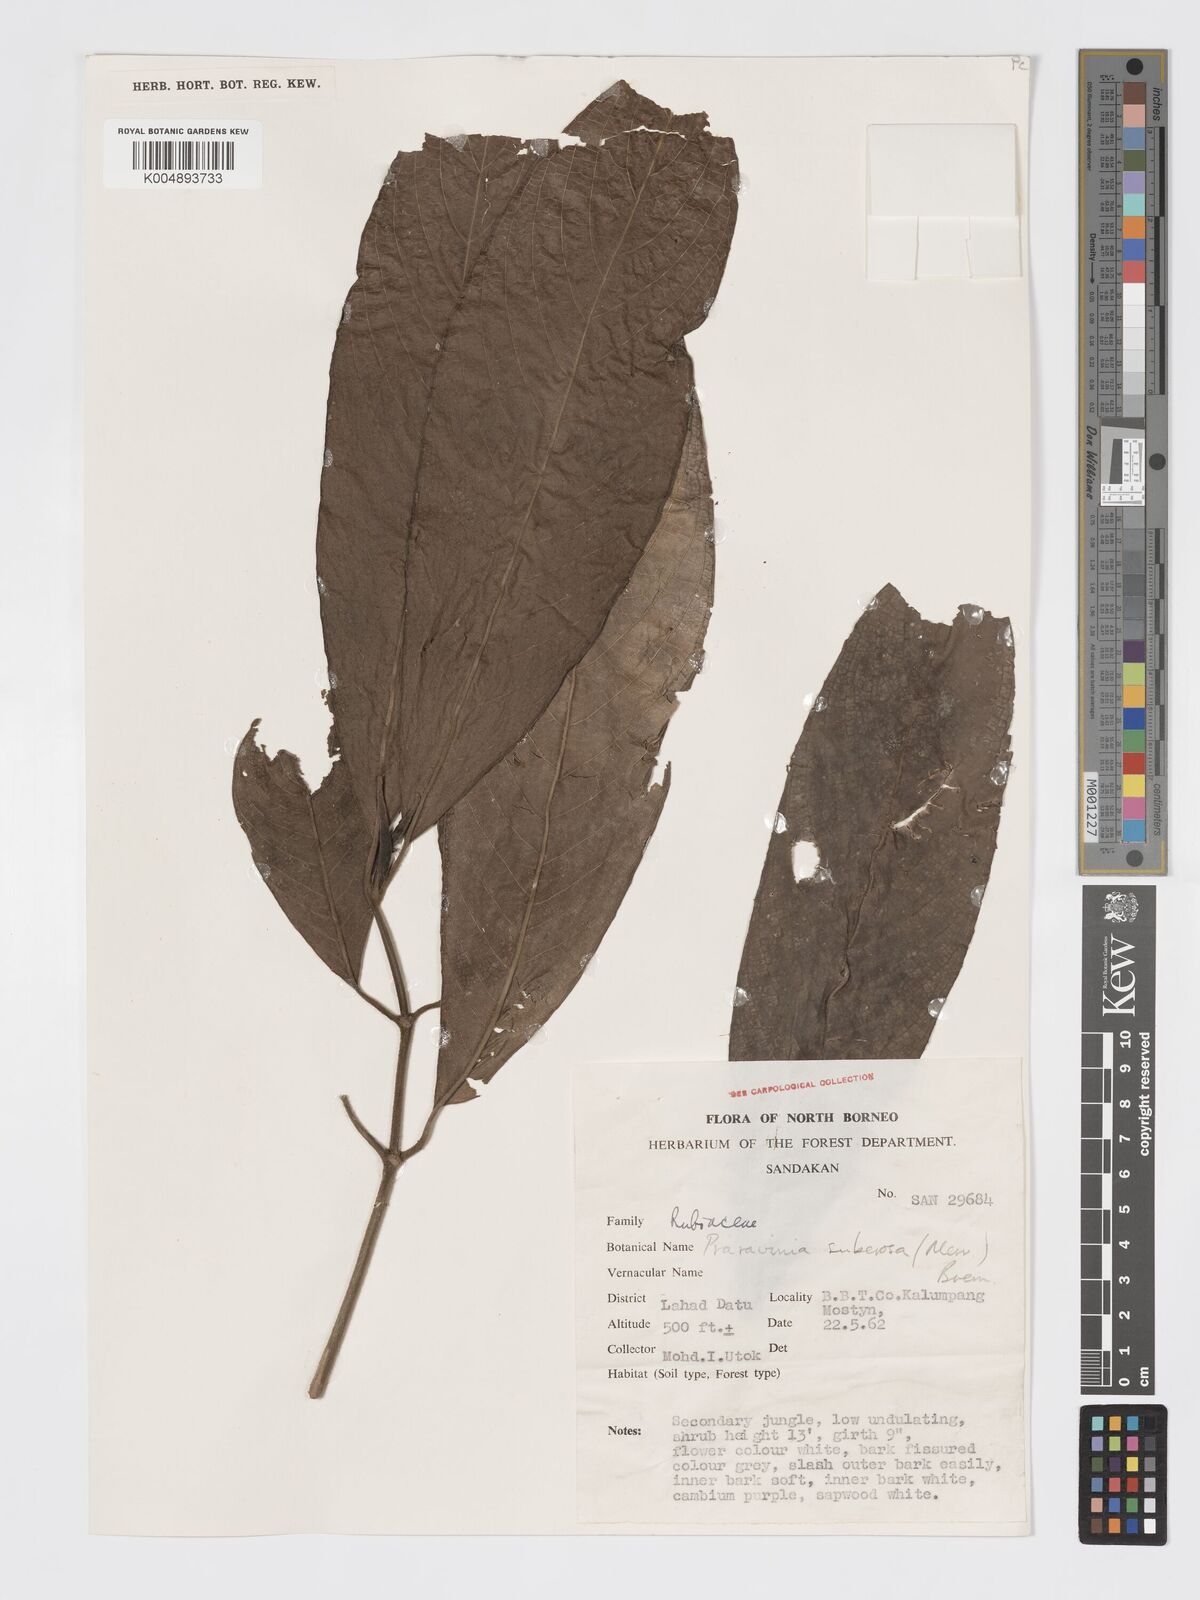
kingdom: Plantae
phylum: Tracheophyta
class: Magnoliopsida
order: Gentianales
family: Rubiaceae
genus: Praravinia
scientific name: Praravinia suberosa
